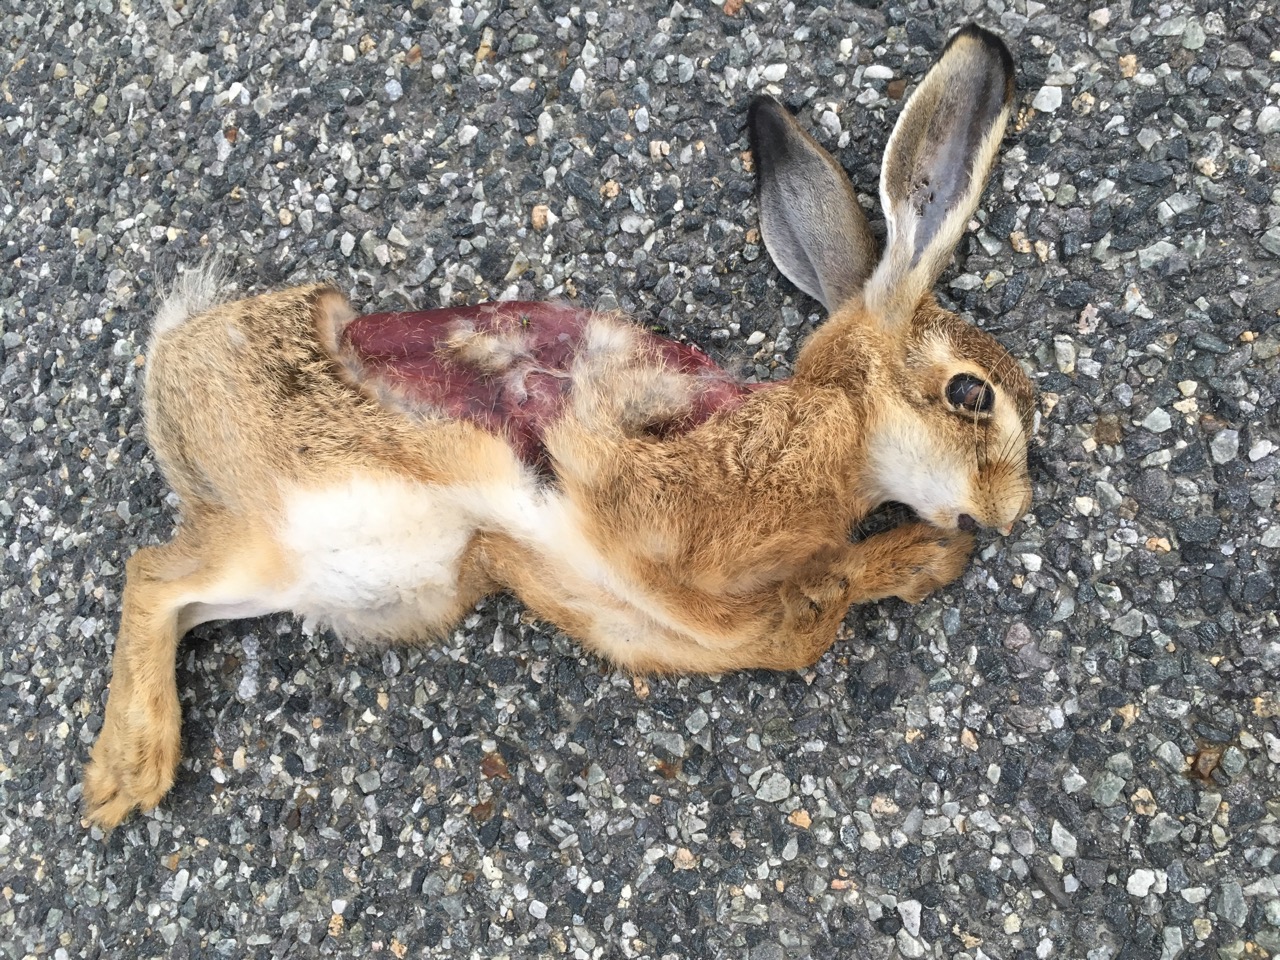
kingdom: Animalia
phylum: Chordata
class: Mammalia
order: Lagomorpha
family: Leporidae
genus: Lepus
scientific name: Lepus europaeus
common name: European hare
